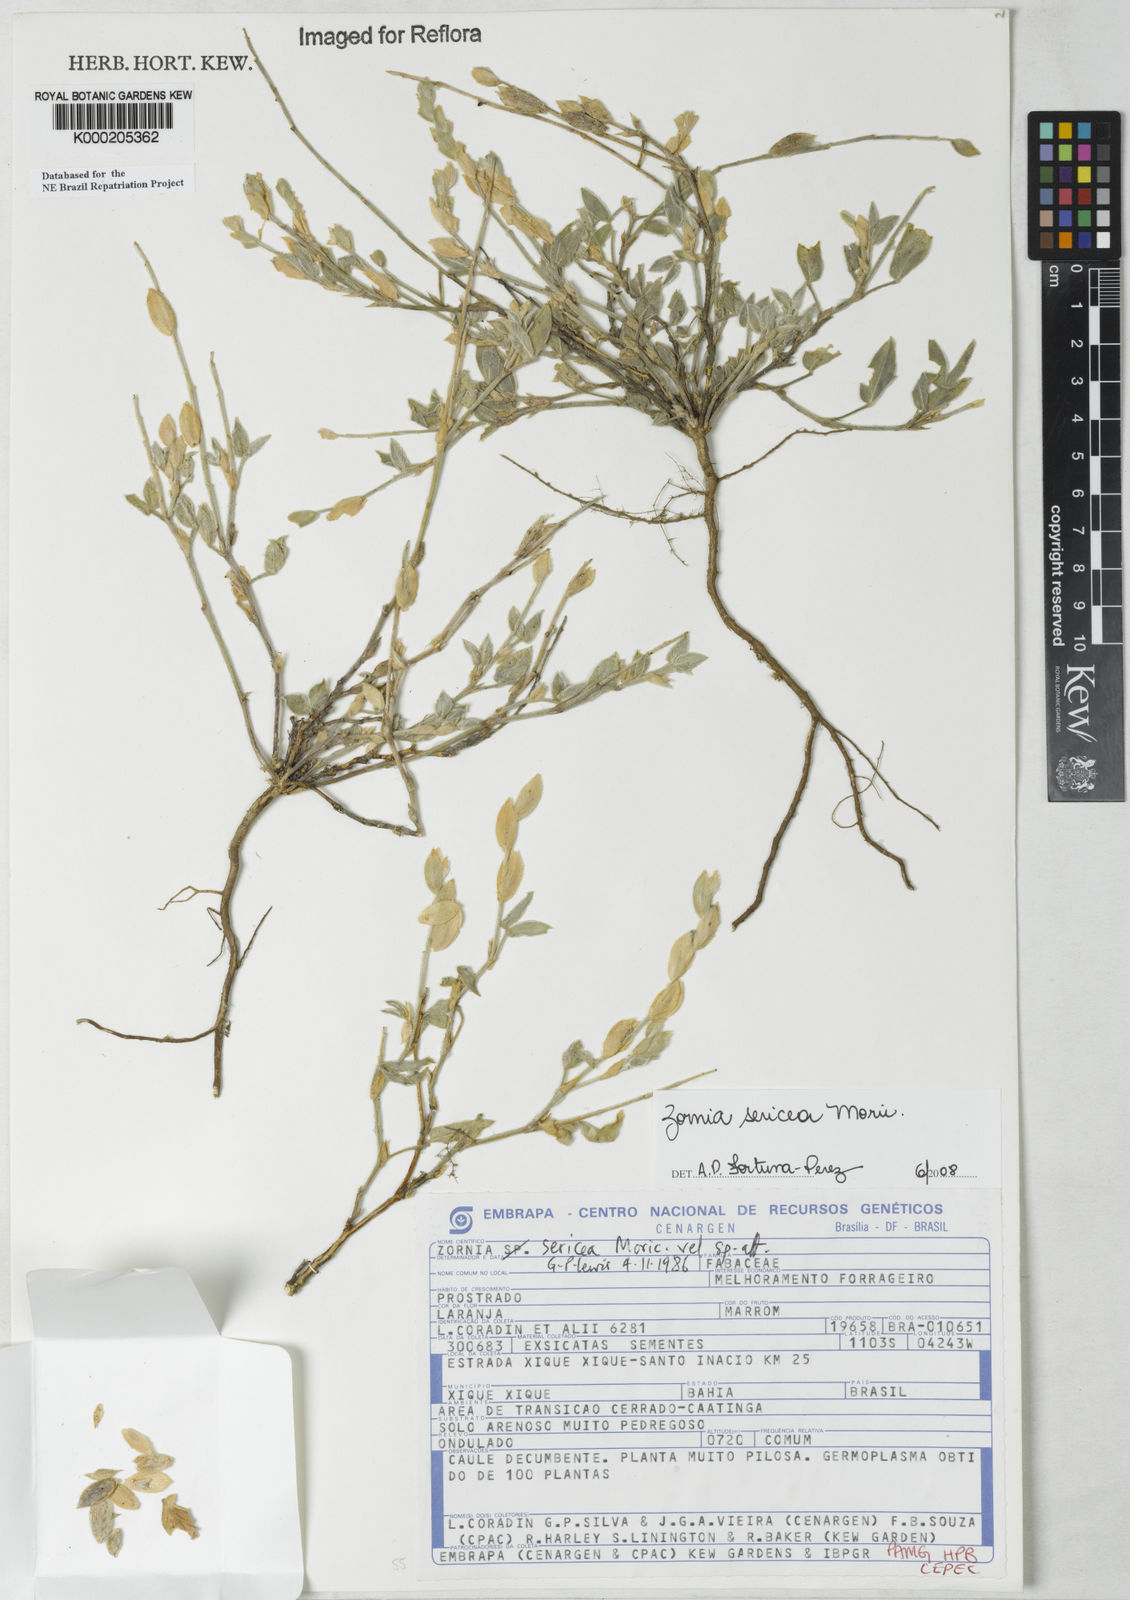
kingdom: Plantae
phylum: Tracheophyta
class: Magnoliopsida
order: Fabales
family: Fabaceae
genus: Zornia
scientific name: Zornia sericea
